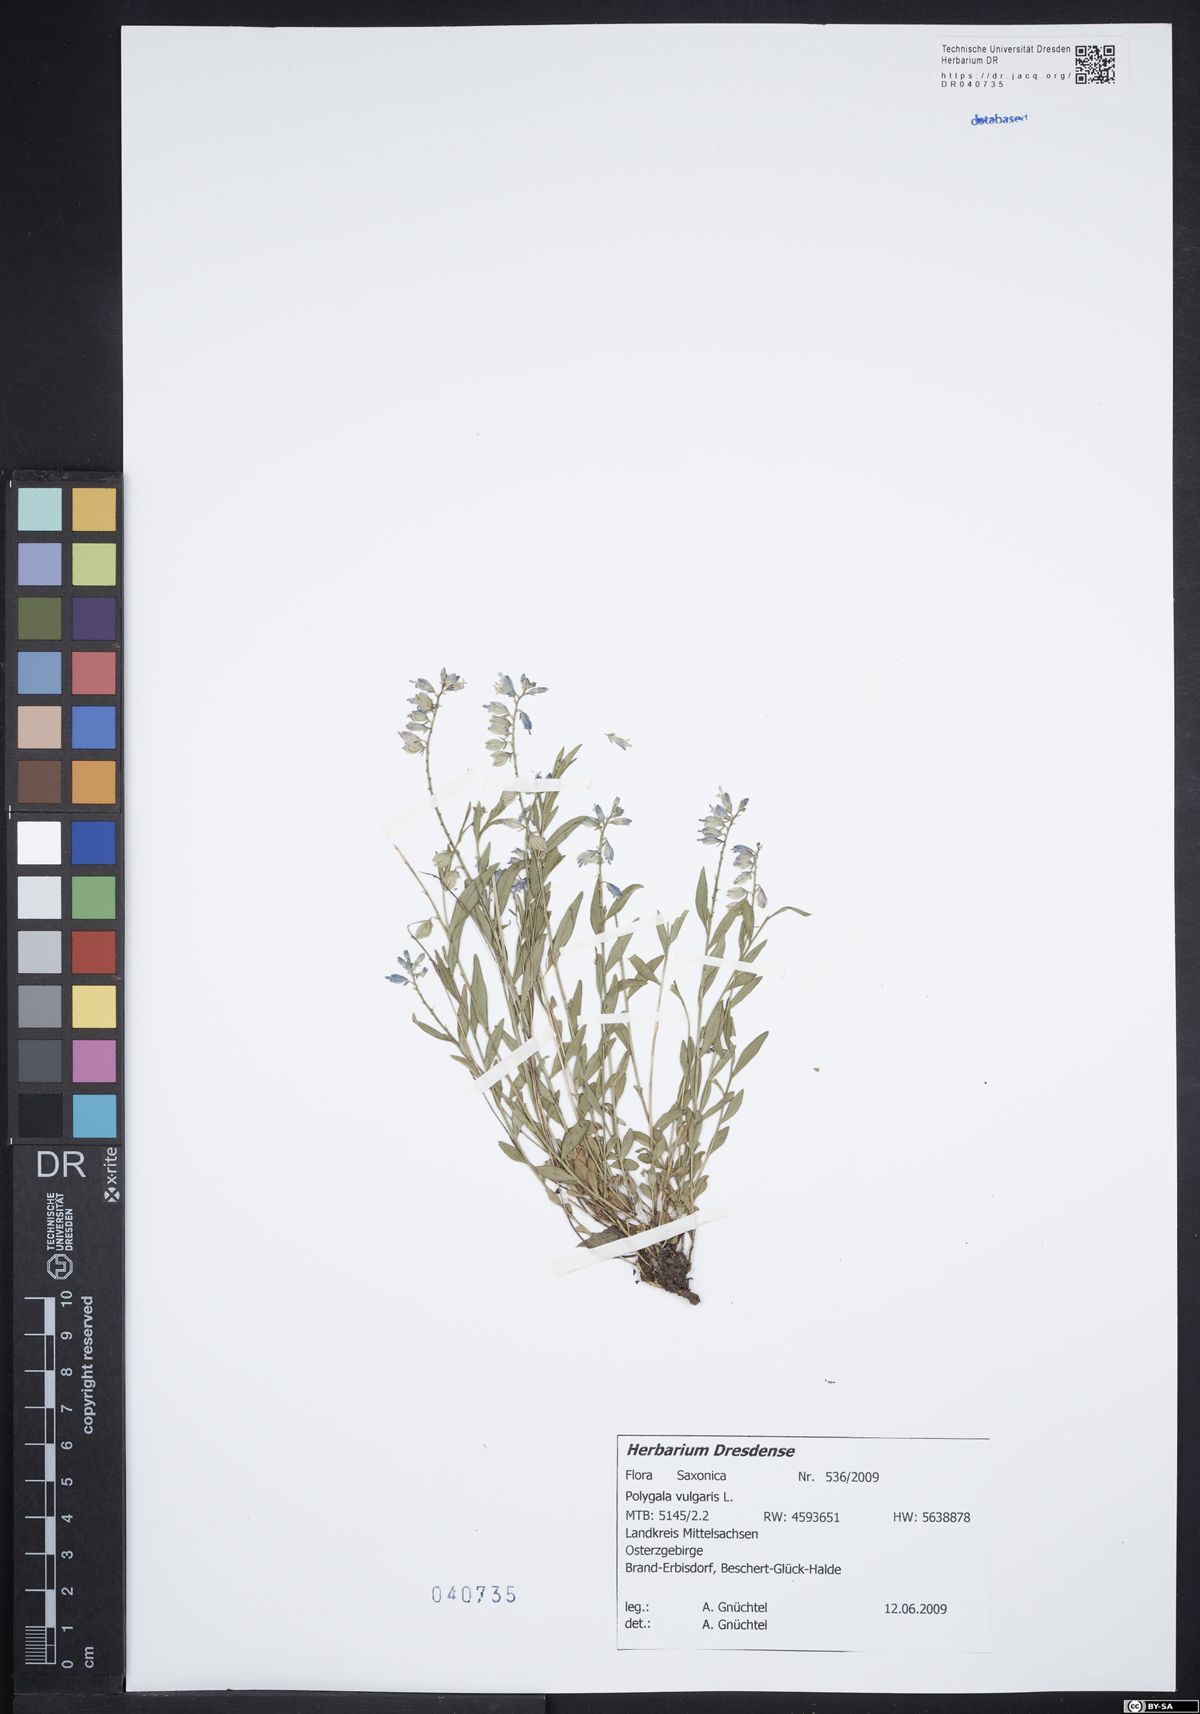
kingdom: Plantae
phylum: Tracheophyta
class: Magnoliopsida
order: Fabales
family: Polygalaceae
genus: Polygala
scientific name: Polygala vulgaris
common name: Common milkwort
